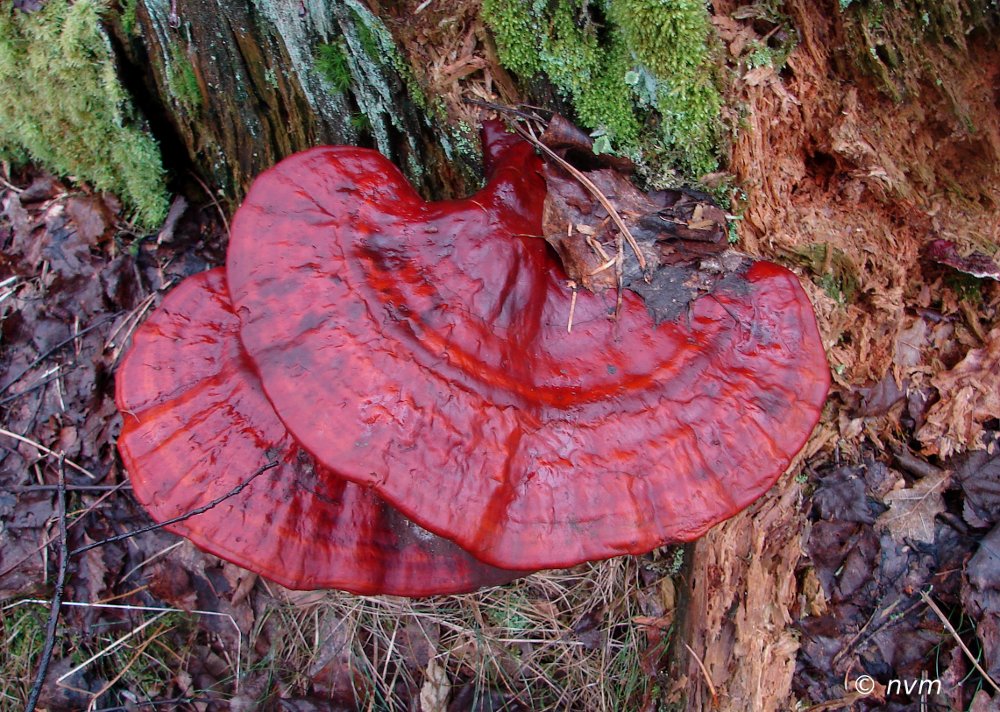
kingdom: Fungi
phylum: Basidiomycota
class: Agaricomycetes
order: Polyporales
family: Polyporaceae
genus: Ganoderma
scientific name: Ganoderma lucidum
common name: skinnende lakporesvamp
